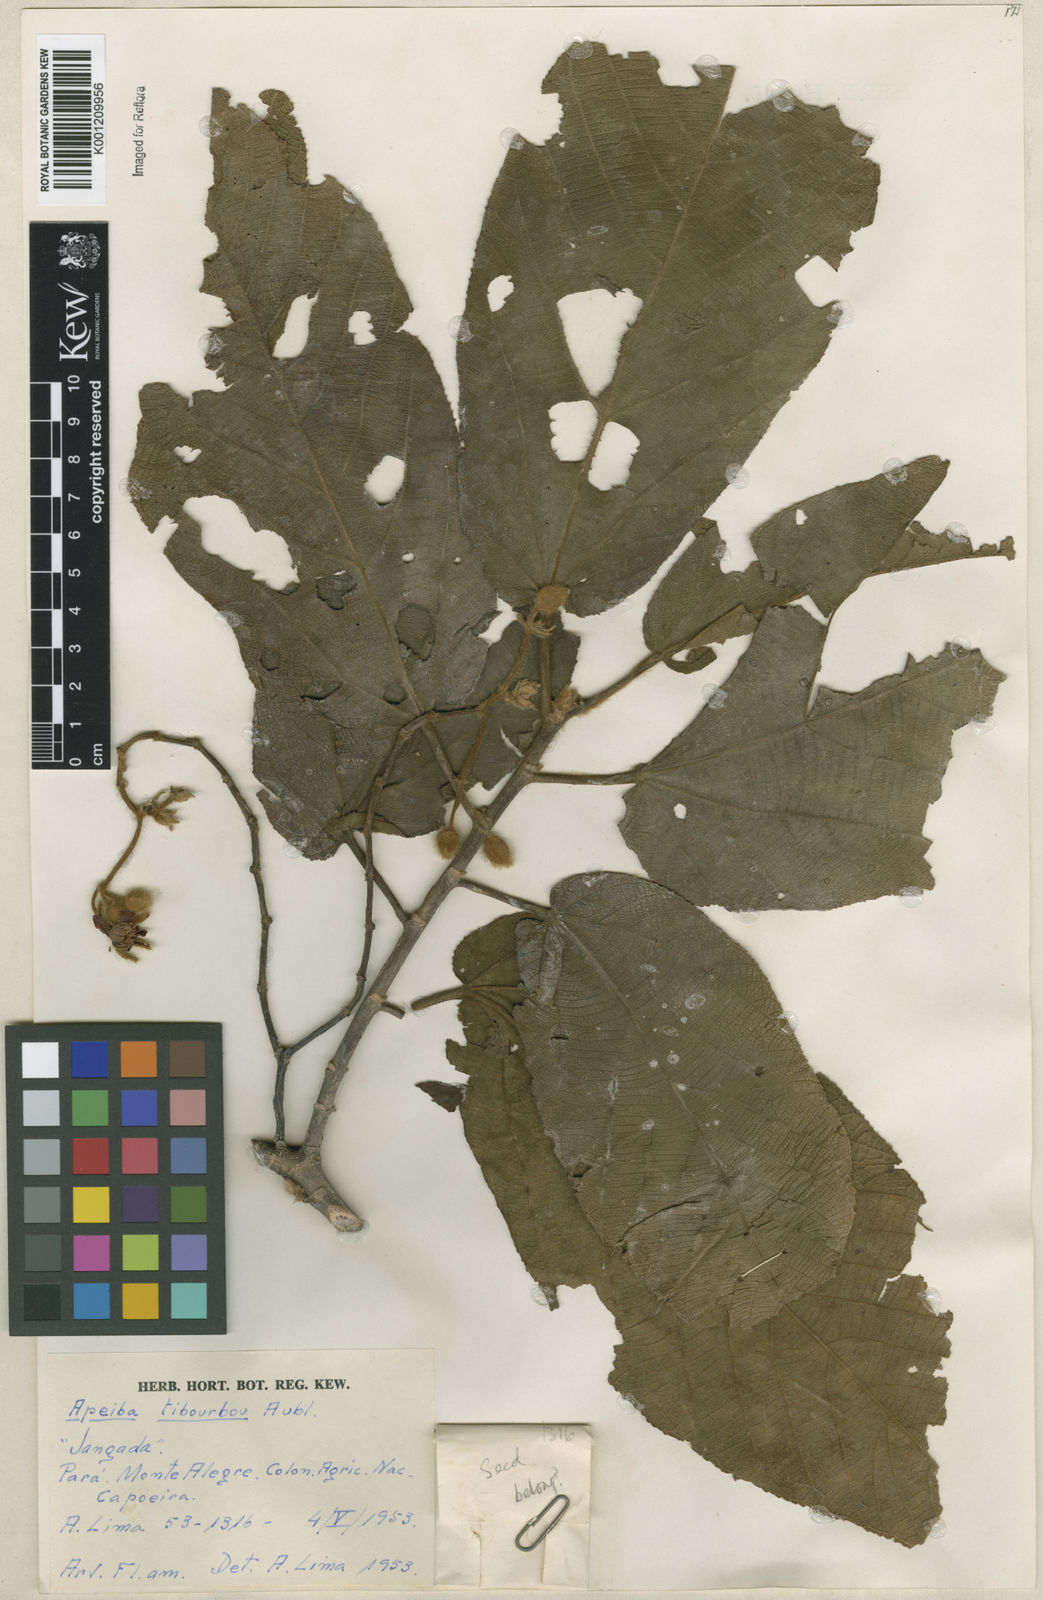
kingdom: Plantae
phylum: Tracheophyta
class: Magnoliopsida
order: Malvales
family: Malvaceae
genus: Apeiba
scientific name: Apeiba tibourbou
